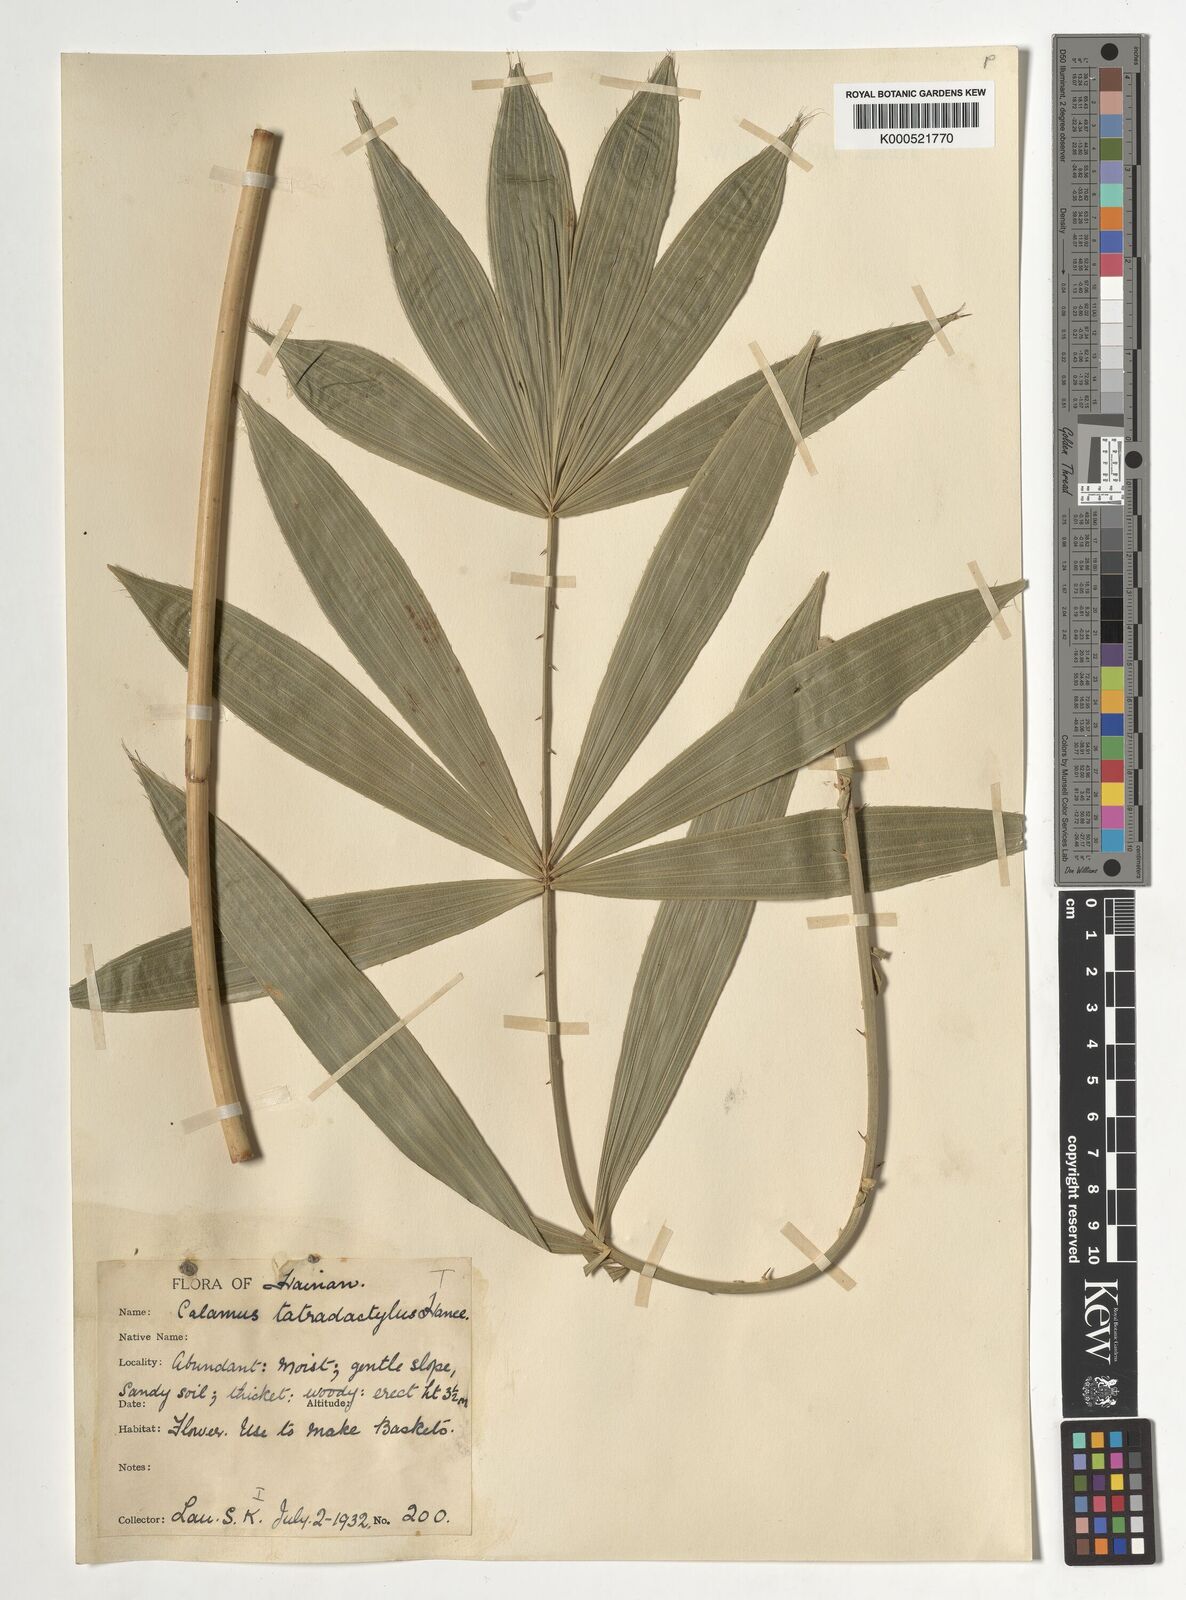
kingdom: Plantae
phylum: Tracheophyta
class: Liliopsida
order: Arecales
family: Arecaceae
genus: Calamus
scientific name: Calamus tetradactylus
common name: White rattan
